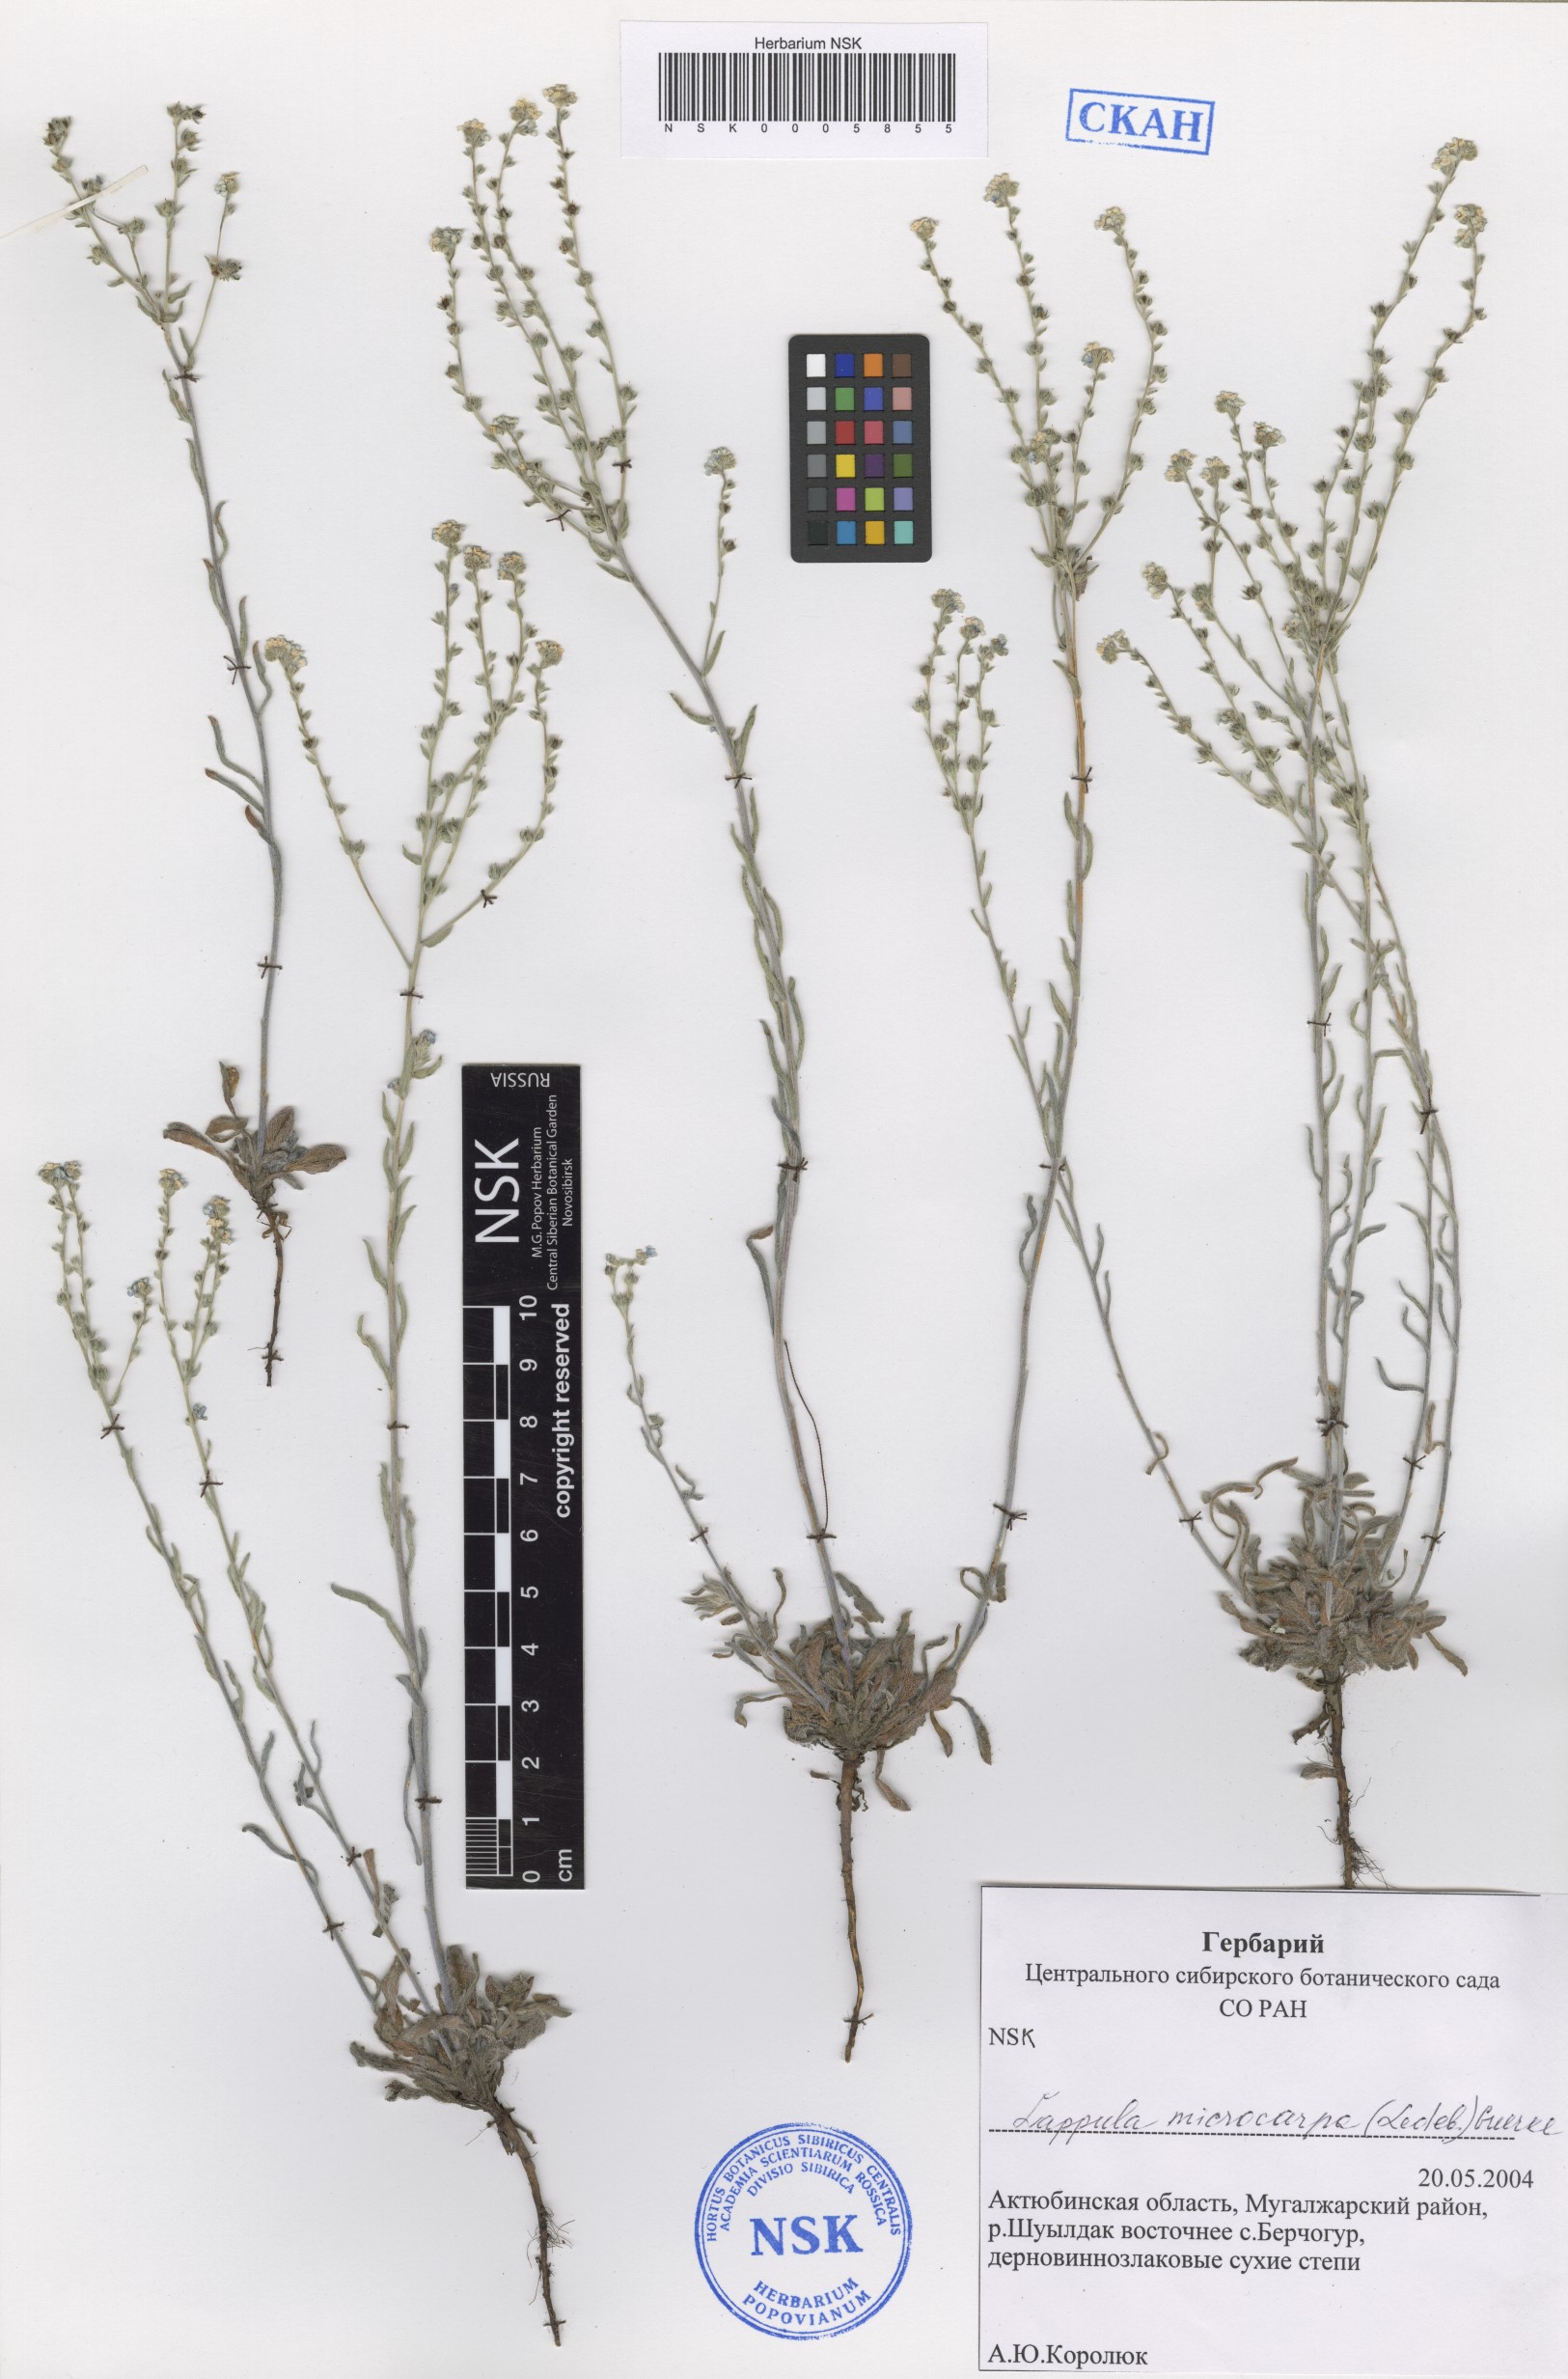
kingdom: Plantae
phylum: Tracheophyta
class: Magnoliopsida
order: Boraginales
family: Boraginaceae
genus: Lappula
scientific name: Lappula microcarpa
